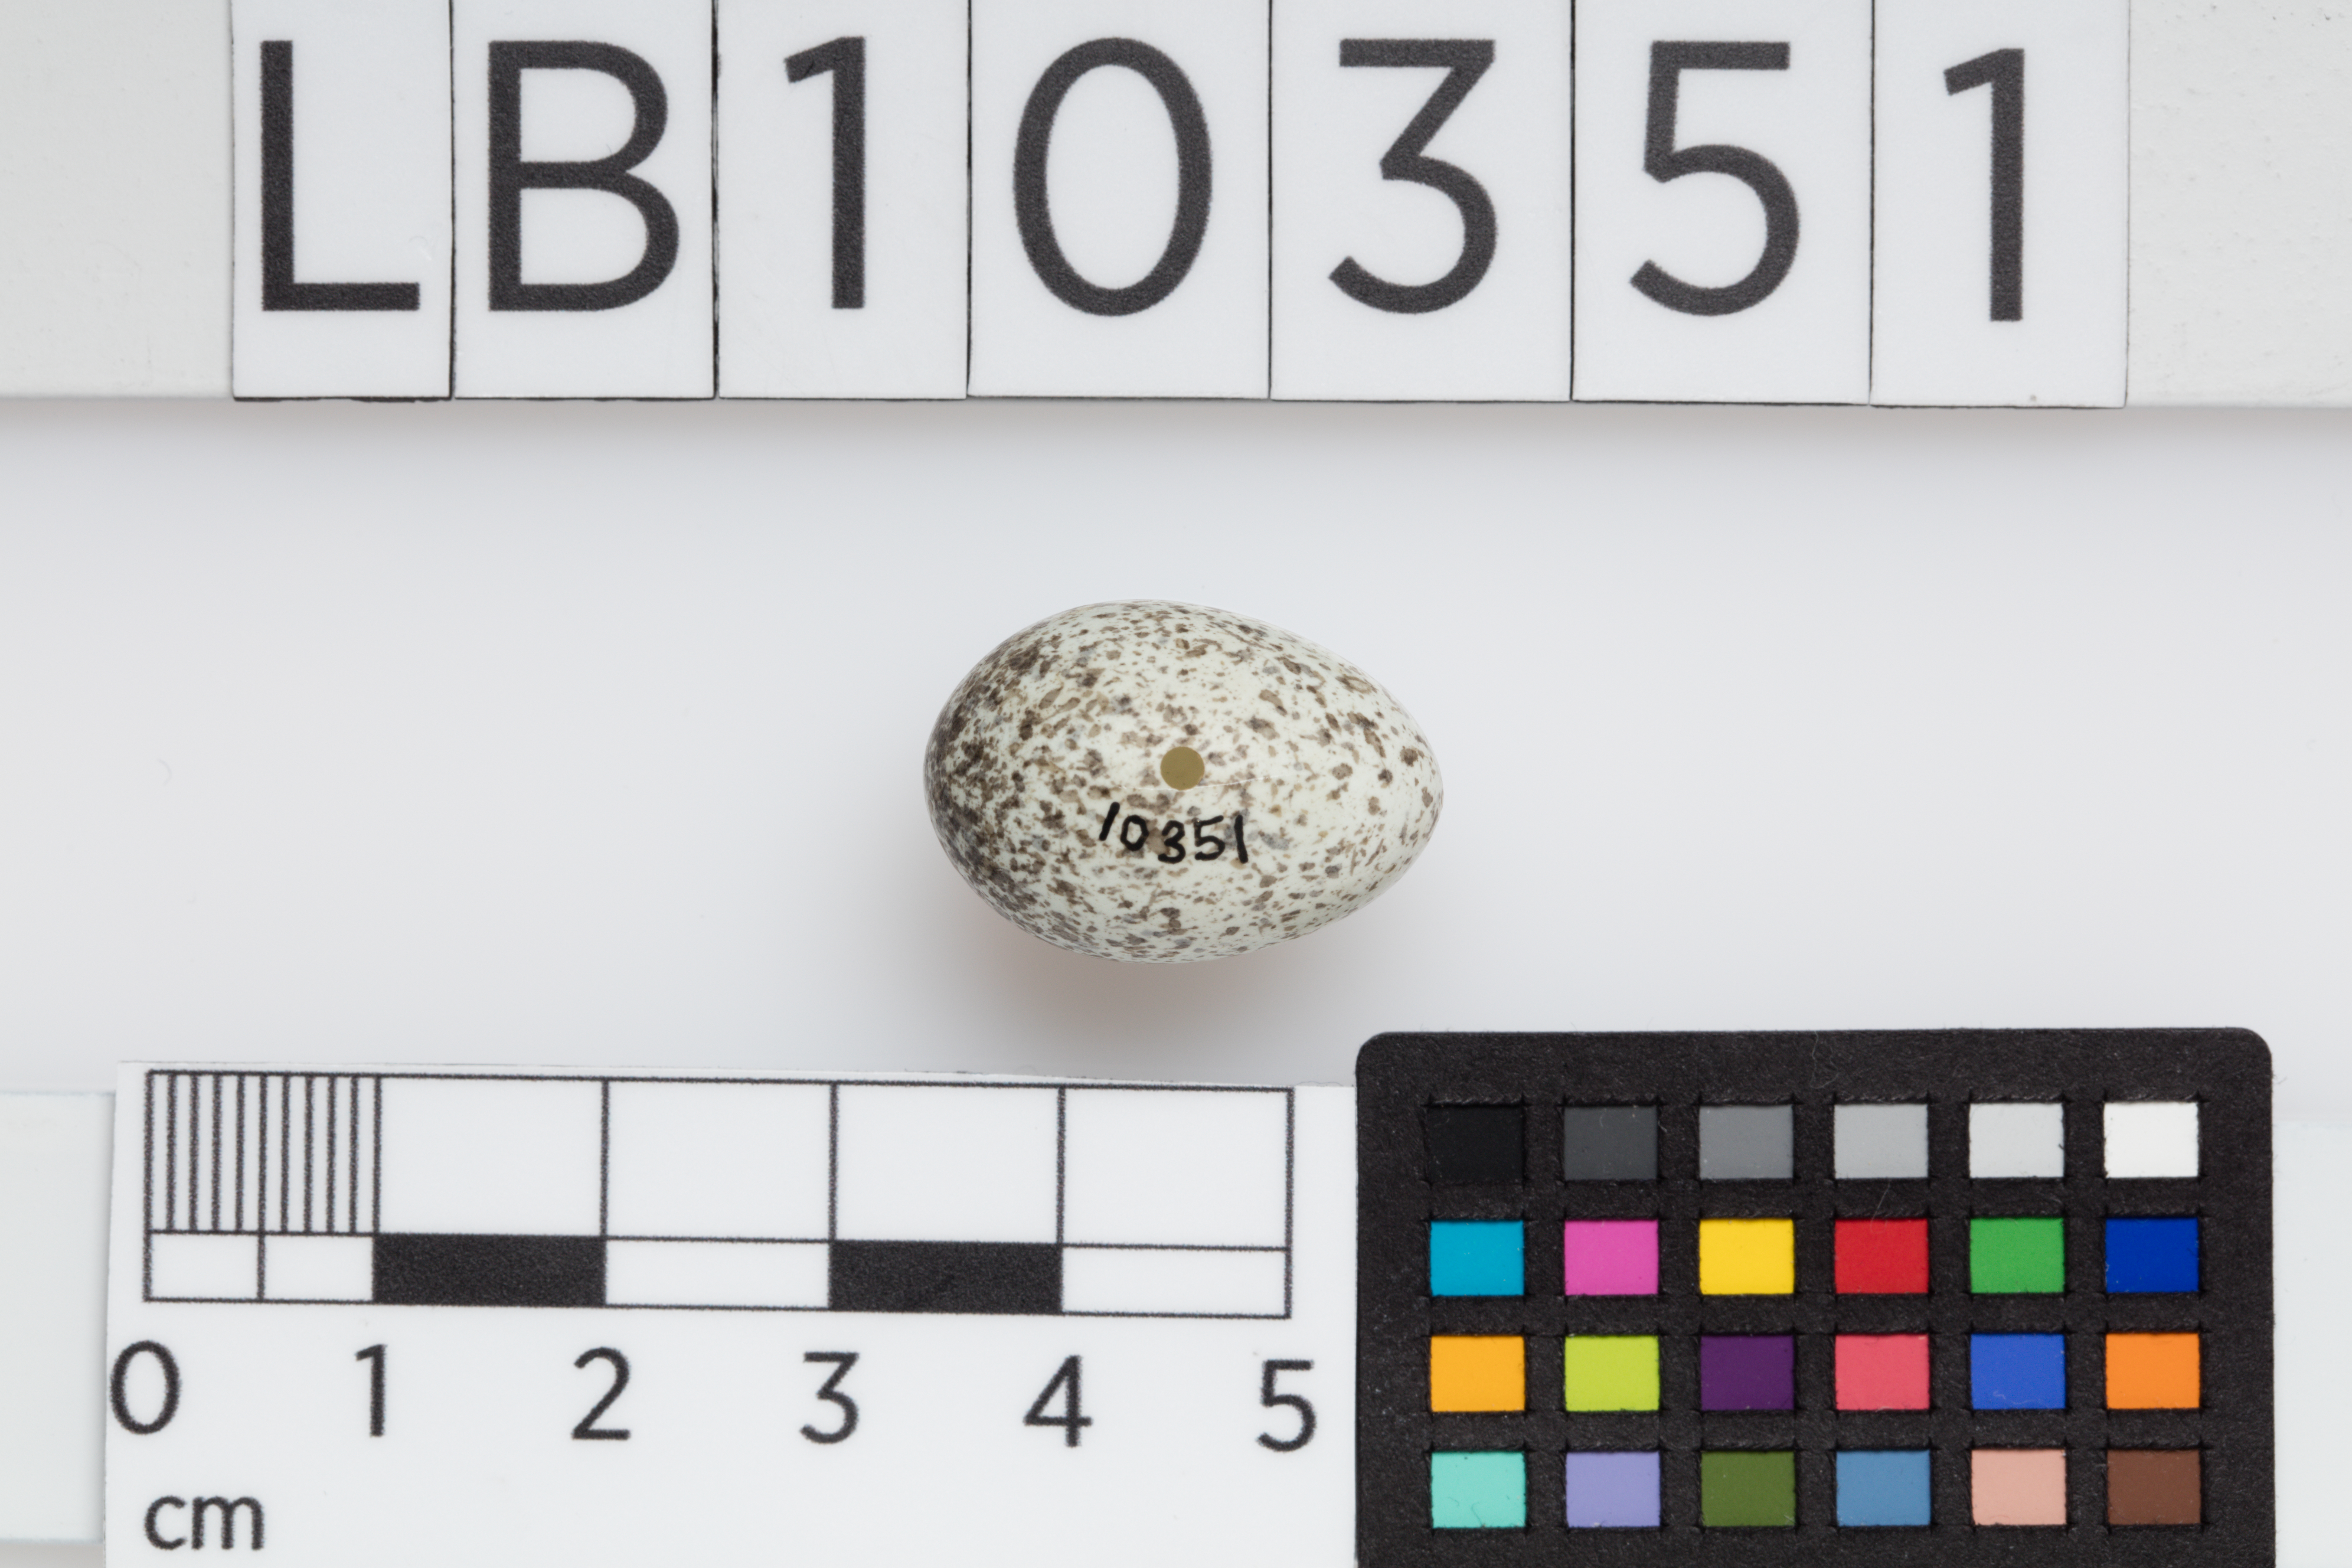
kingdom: Animalia
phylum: Chordata
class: Aves
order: Passeriformes
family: Passeridae
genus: Passer
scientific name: Passer domesticus
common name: House sparrow
